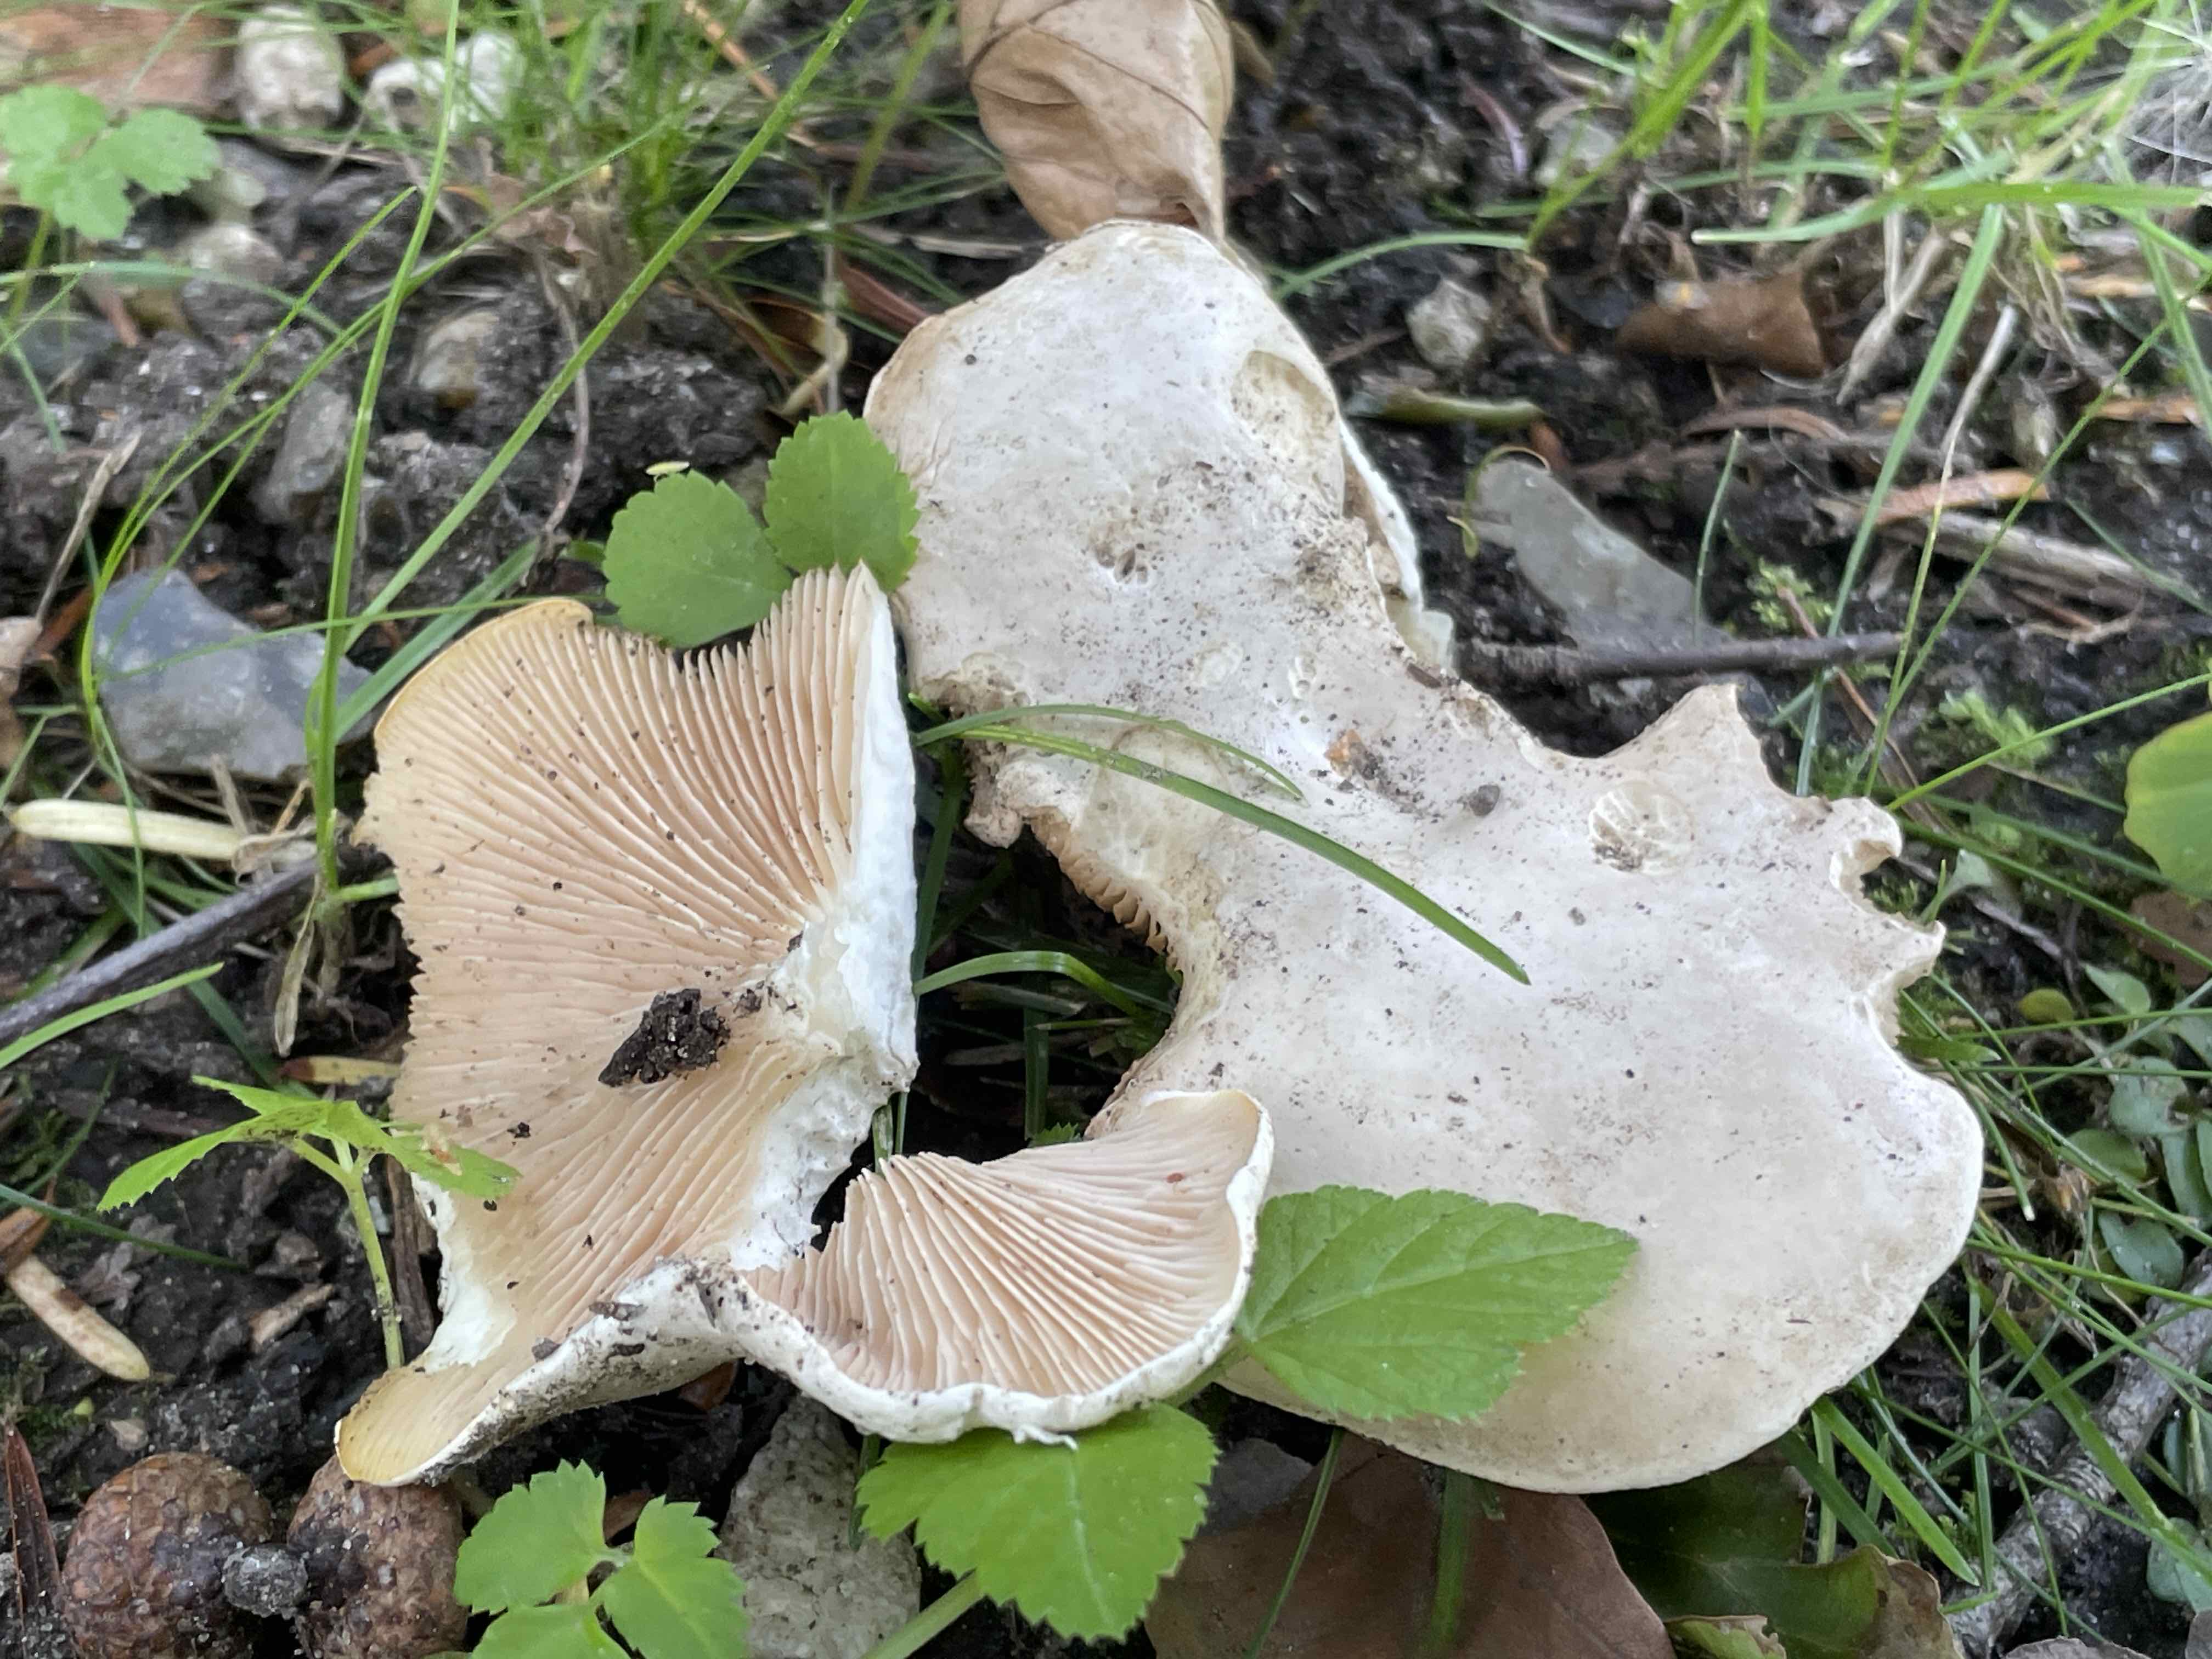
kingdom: Fungi
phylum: Basidiomycota
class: Agaricomycetes
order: Agaricales
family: Entolomataceae
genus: Clitopilus
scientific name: Clitopilus prunulus
